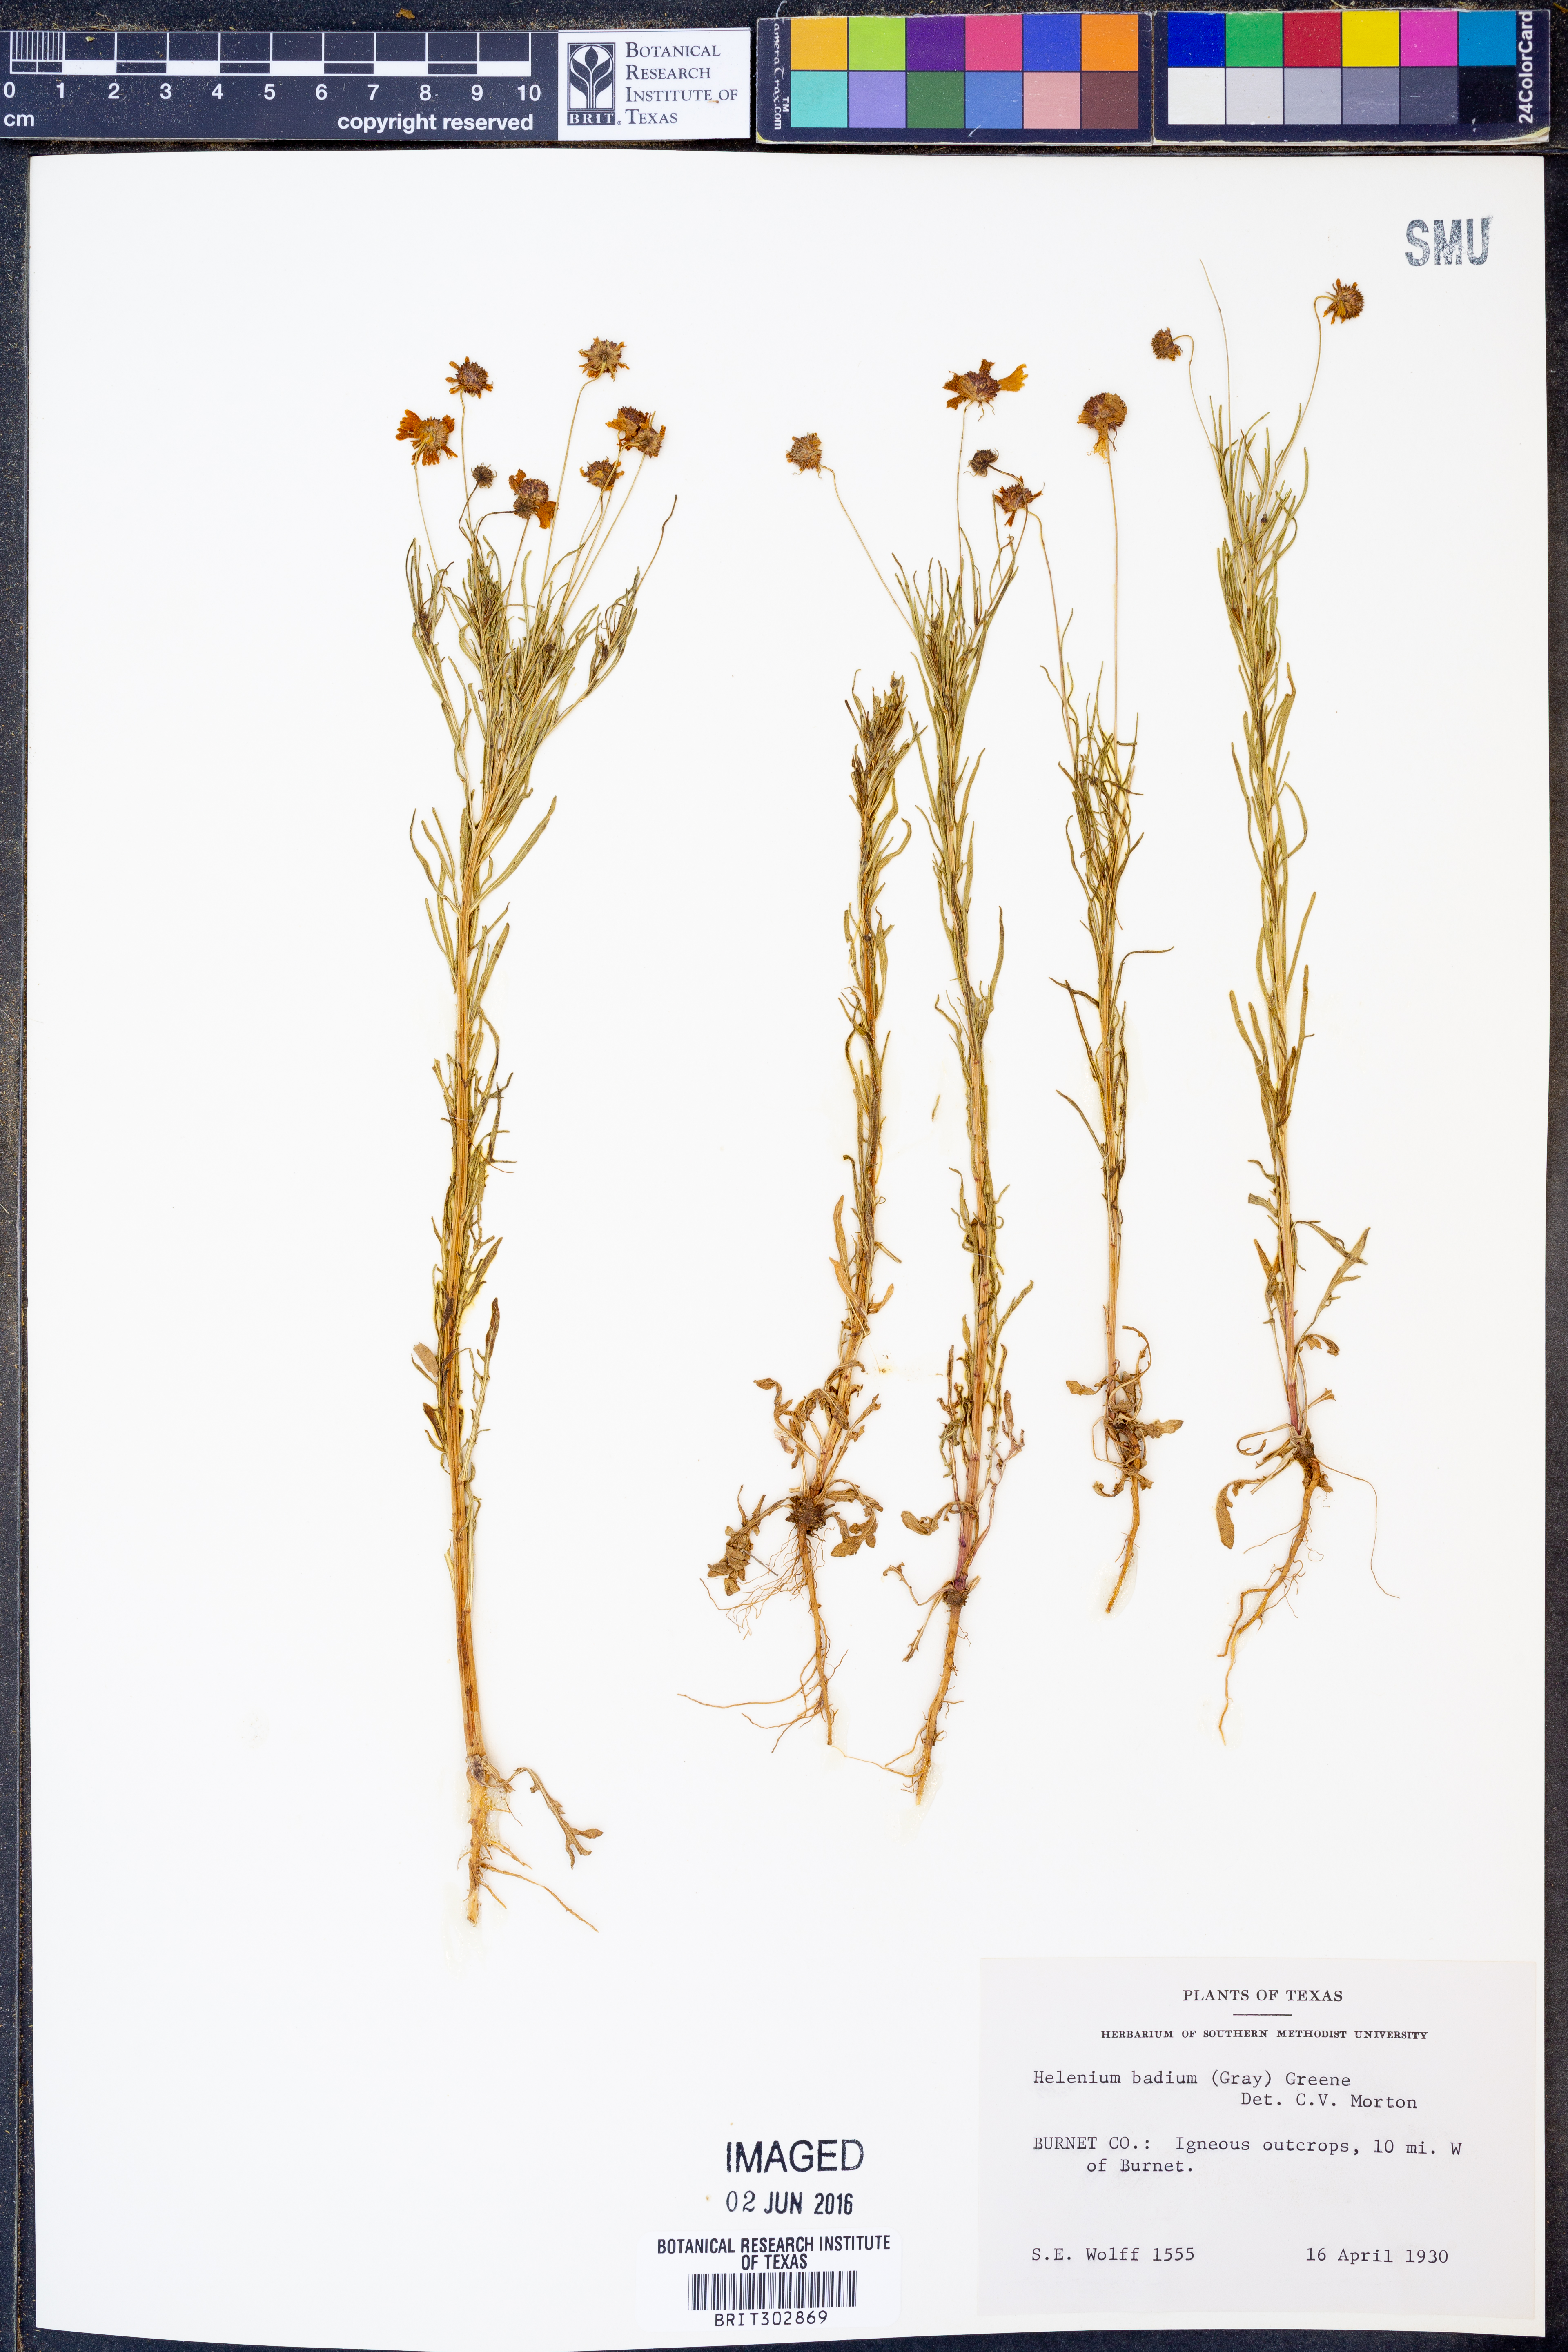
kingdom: Plantae
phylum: Tracheophyta
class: Magnoliopsida
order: Asterales
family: Asteraceae
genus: Helenium
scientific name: Helenium amarum
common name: Bitter sneezeweed
